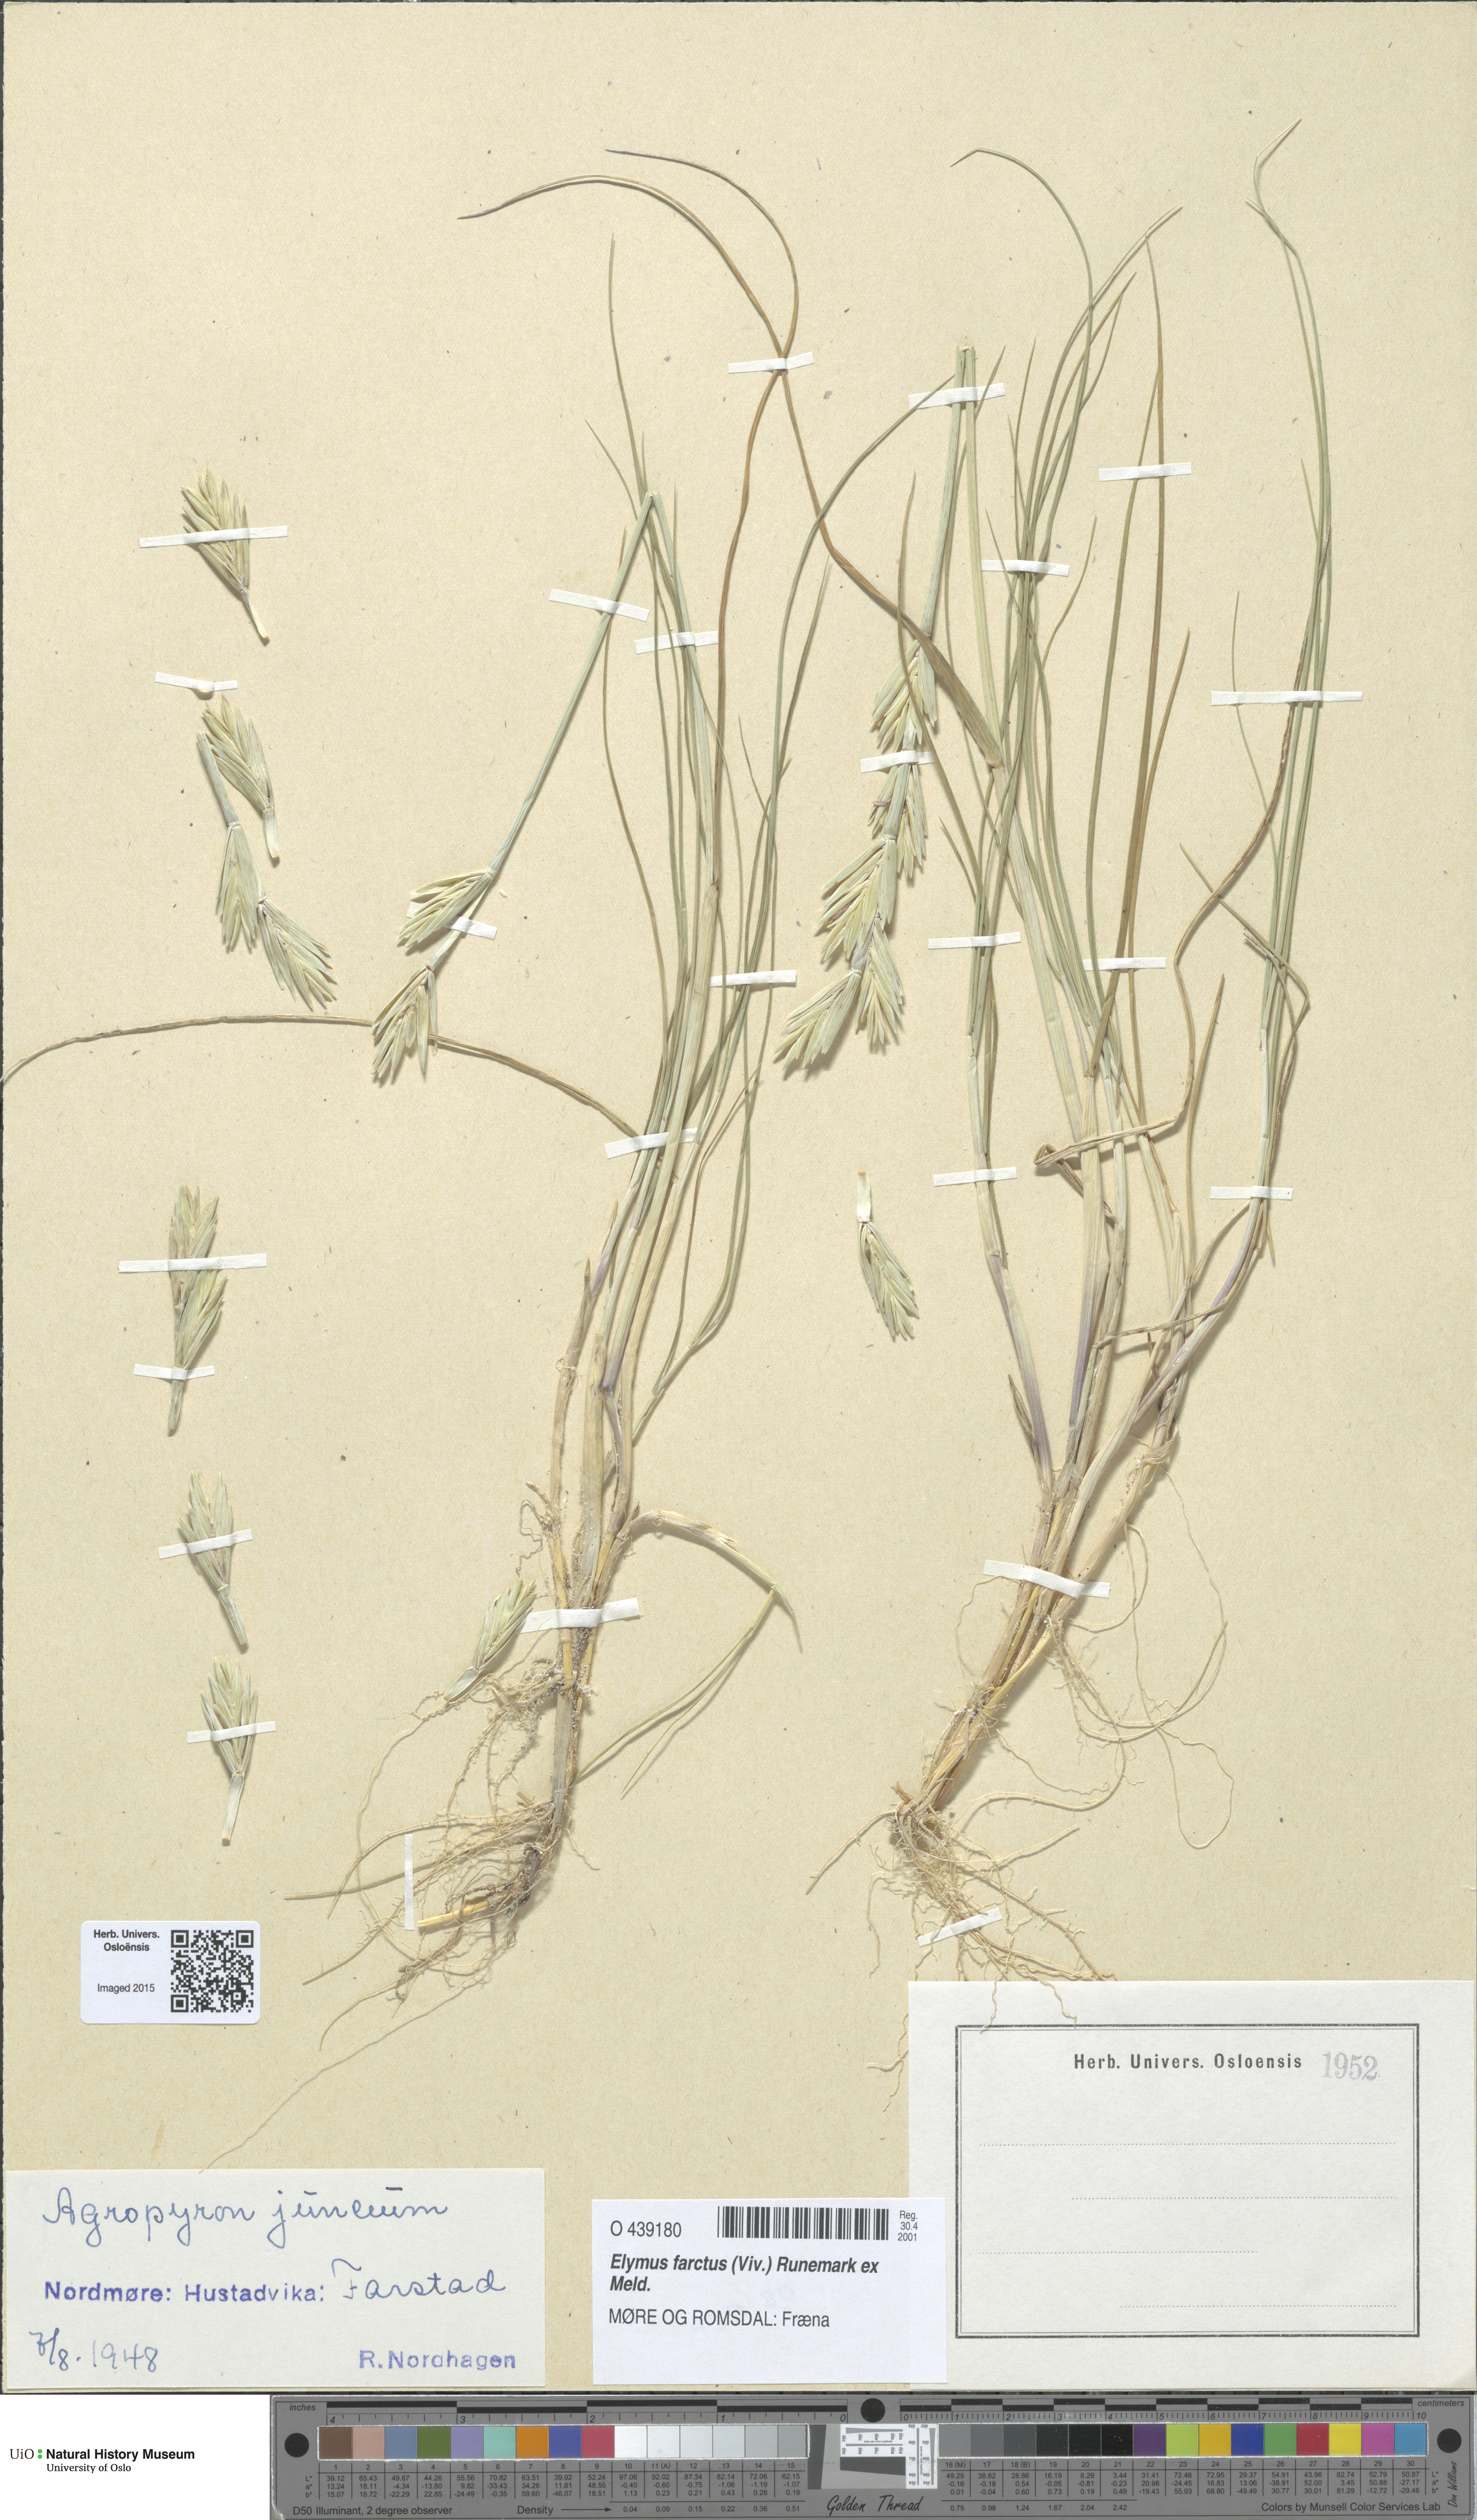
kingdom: Plantae
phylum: Tracheophyta
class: Liliopsida
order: Poales
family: Poaceae
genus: Thinopyrum
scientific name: Thinopyrum junceum
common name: Russian wheatgrass
